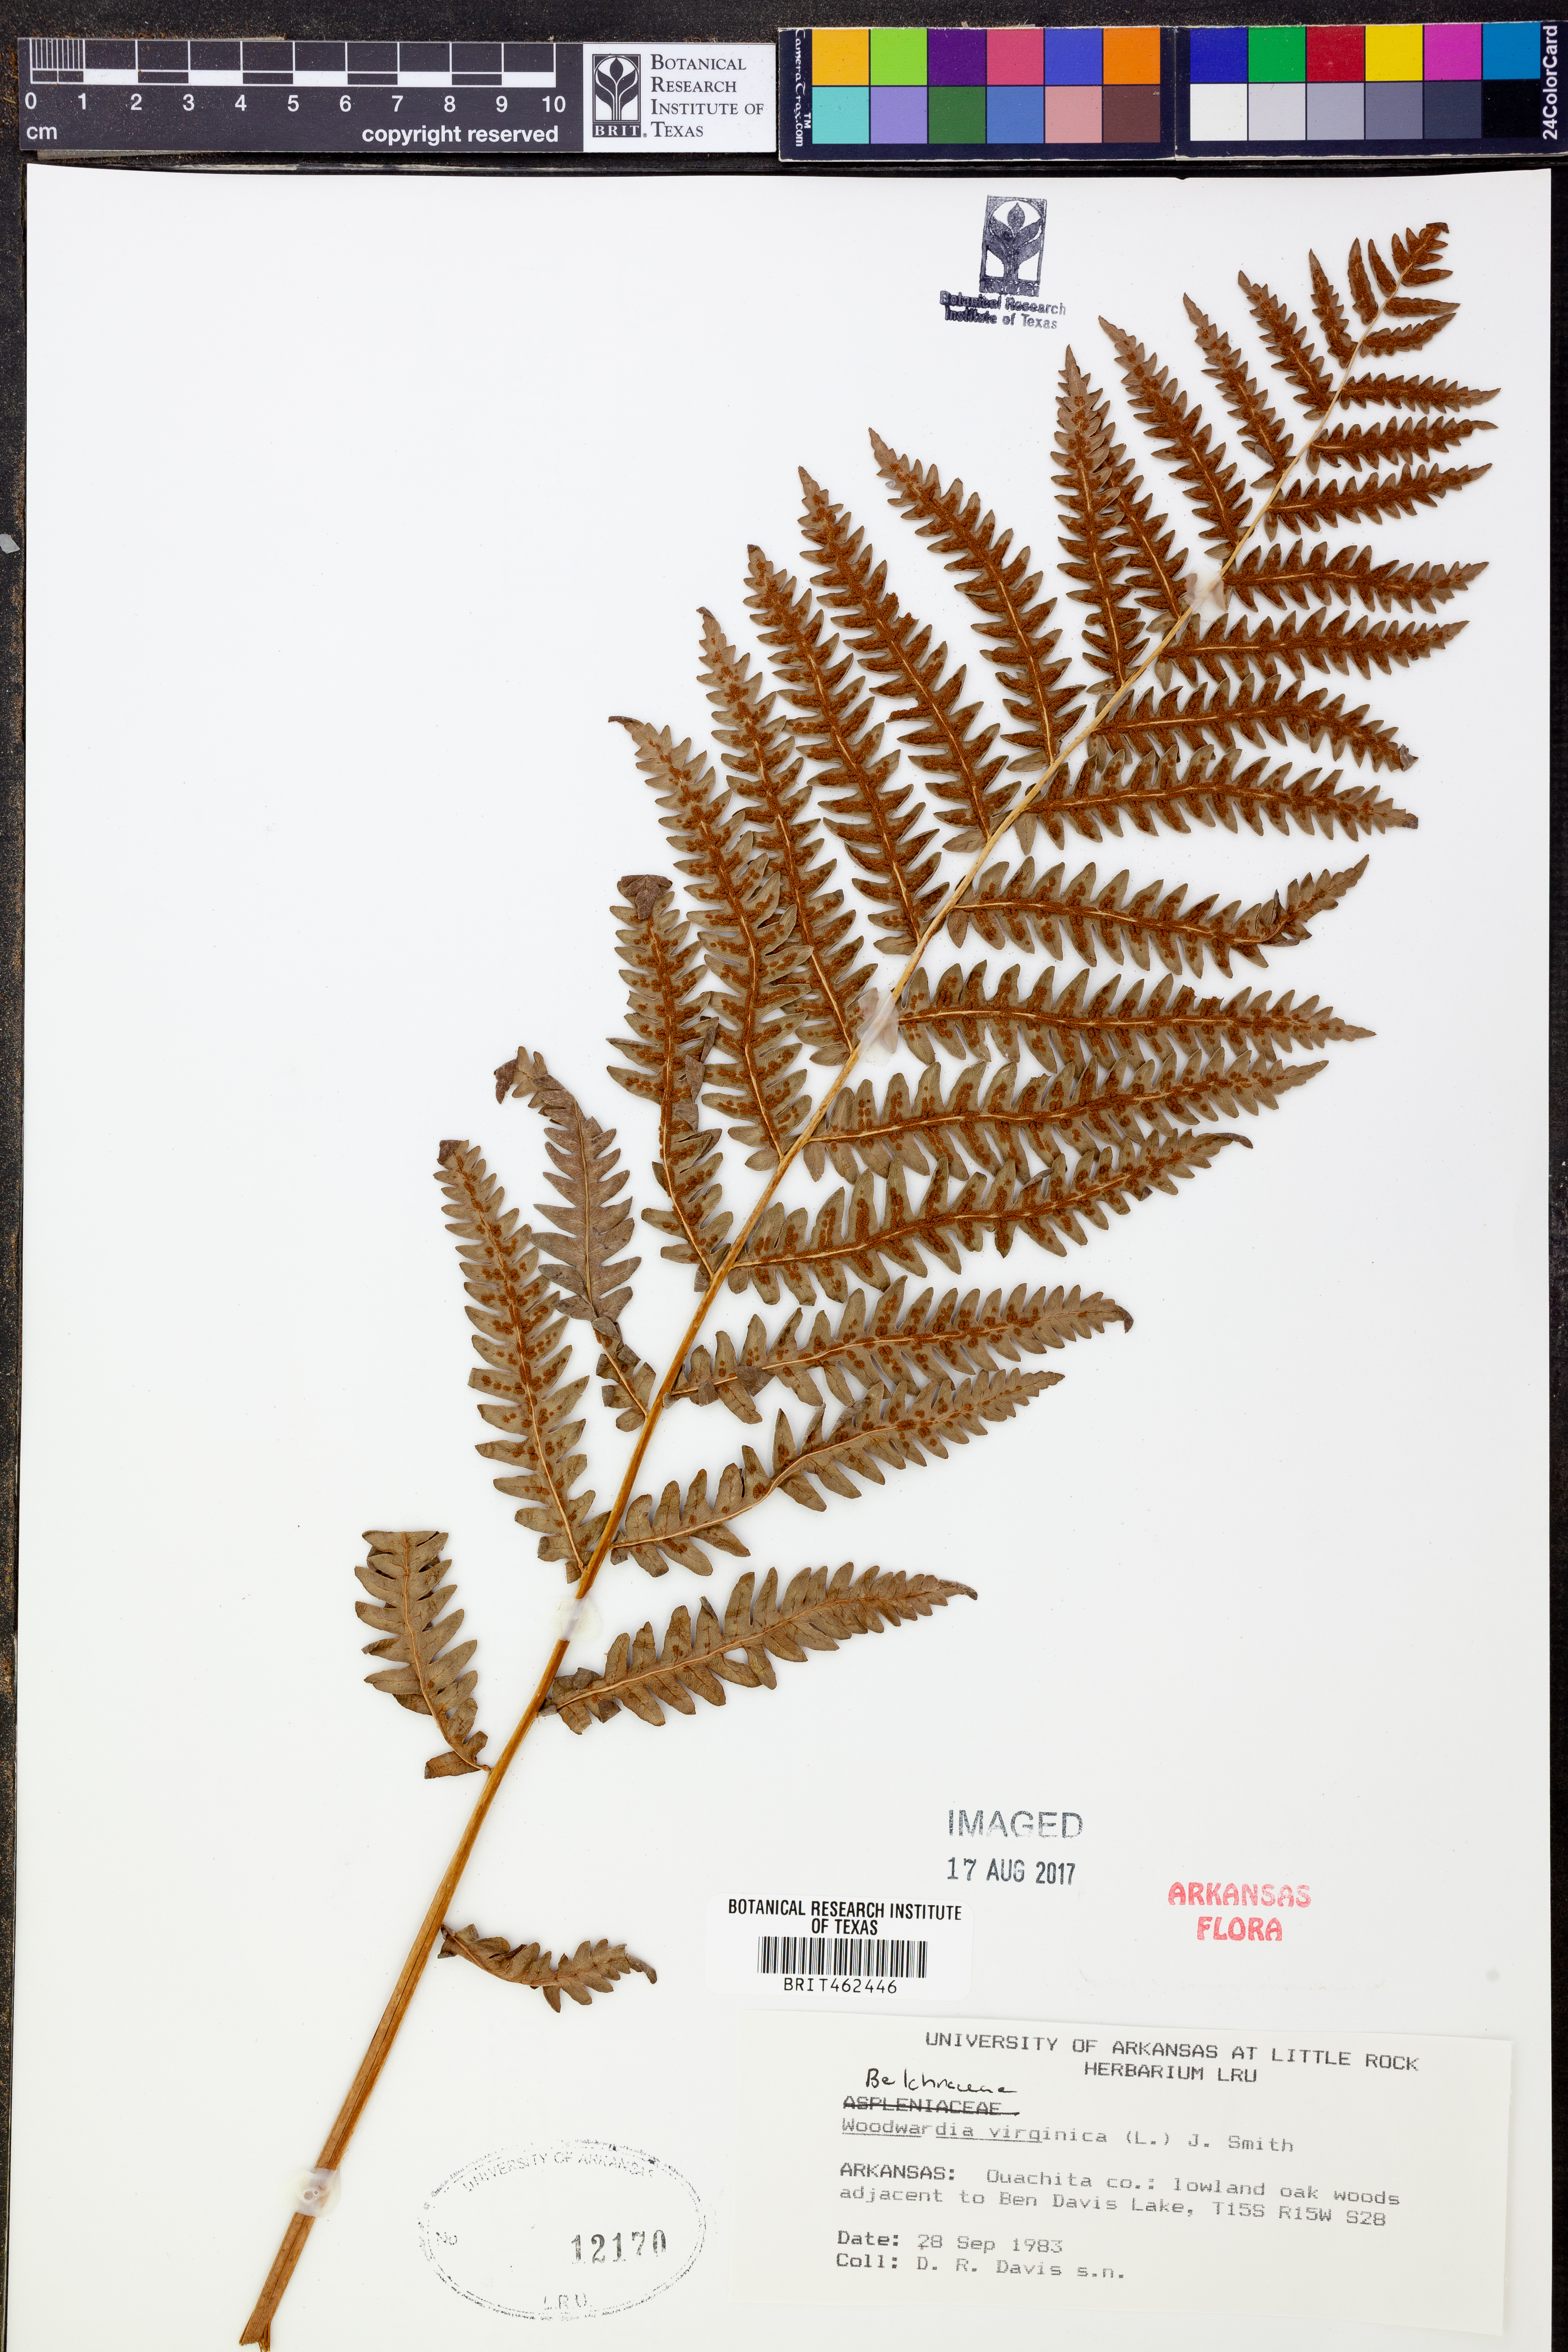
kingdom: Plantae
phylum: Tracheophyta
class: Polypodiopsida
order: Polypodiales
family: Blechnaceae
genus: Anchistea
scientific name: Anchistea virginica
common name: Virginia chain fern
